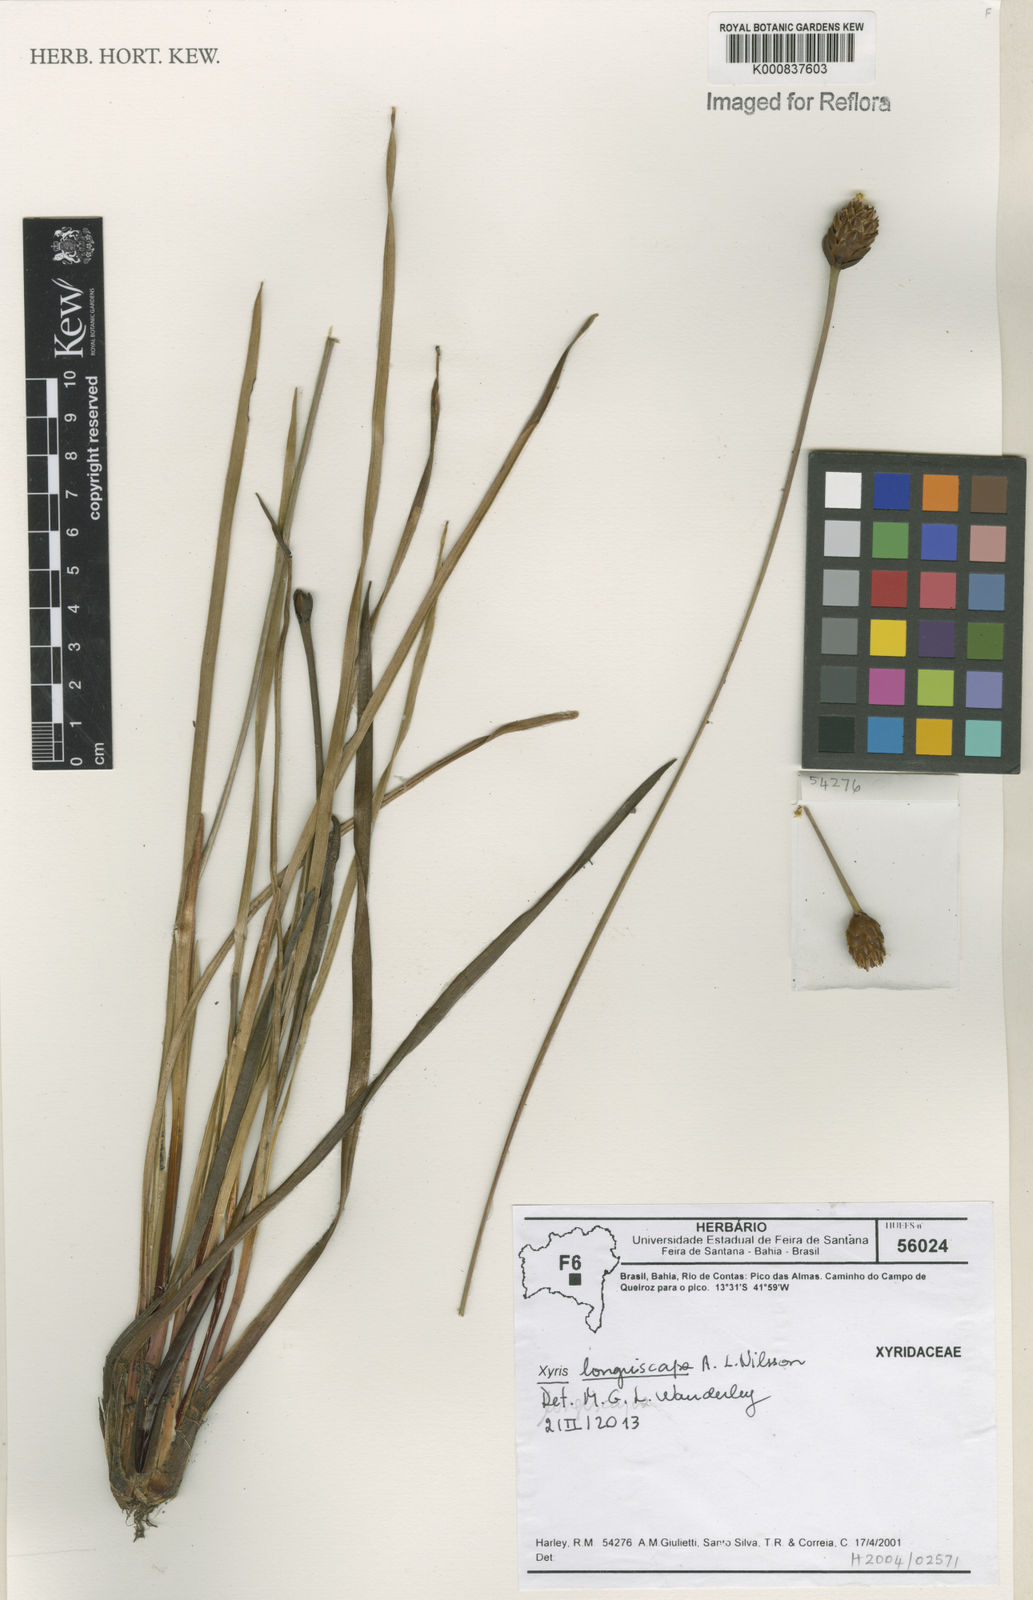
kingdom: Plantae
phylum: Tracheophyta
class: Liliopsida
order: Poales
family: Xyridaceae
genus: Xyris
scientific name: Xyris longiscapa
